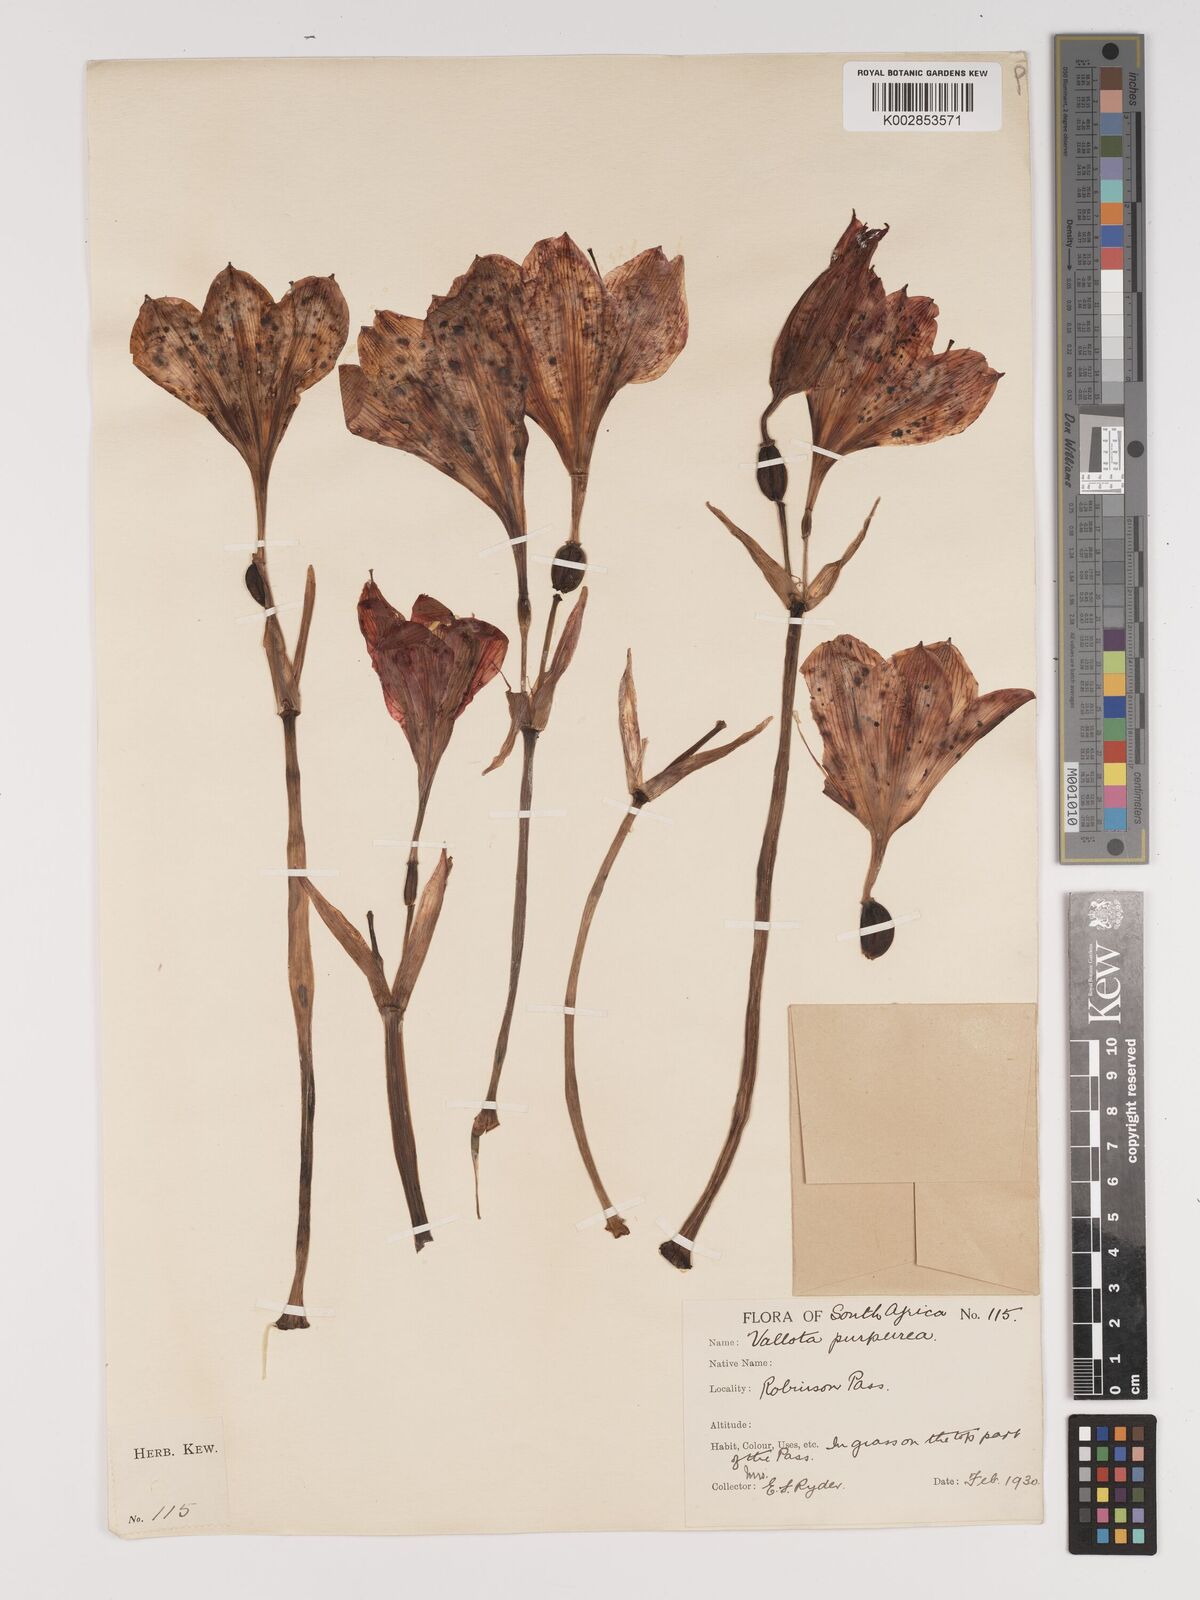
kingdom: Plantae
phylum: Tracheophyta
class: Liliopsida
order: Asparagales
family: Amaryllidaceae
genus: Cyrtanthus
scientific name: Cyrtanthus elatus
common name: Scarborough-lily
